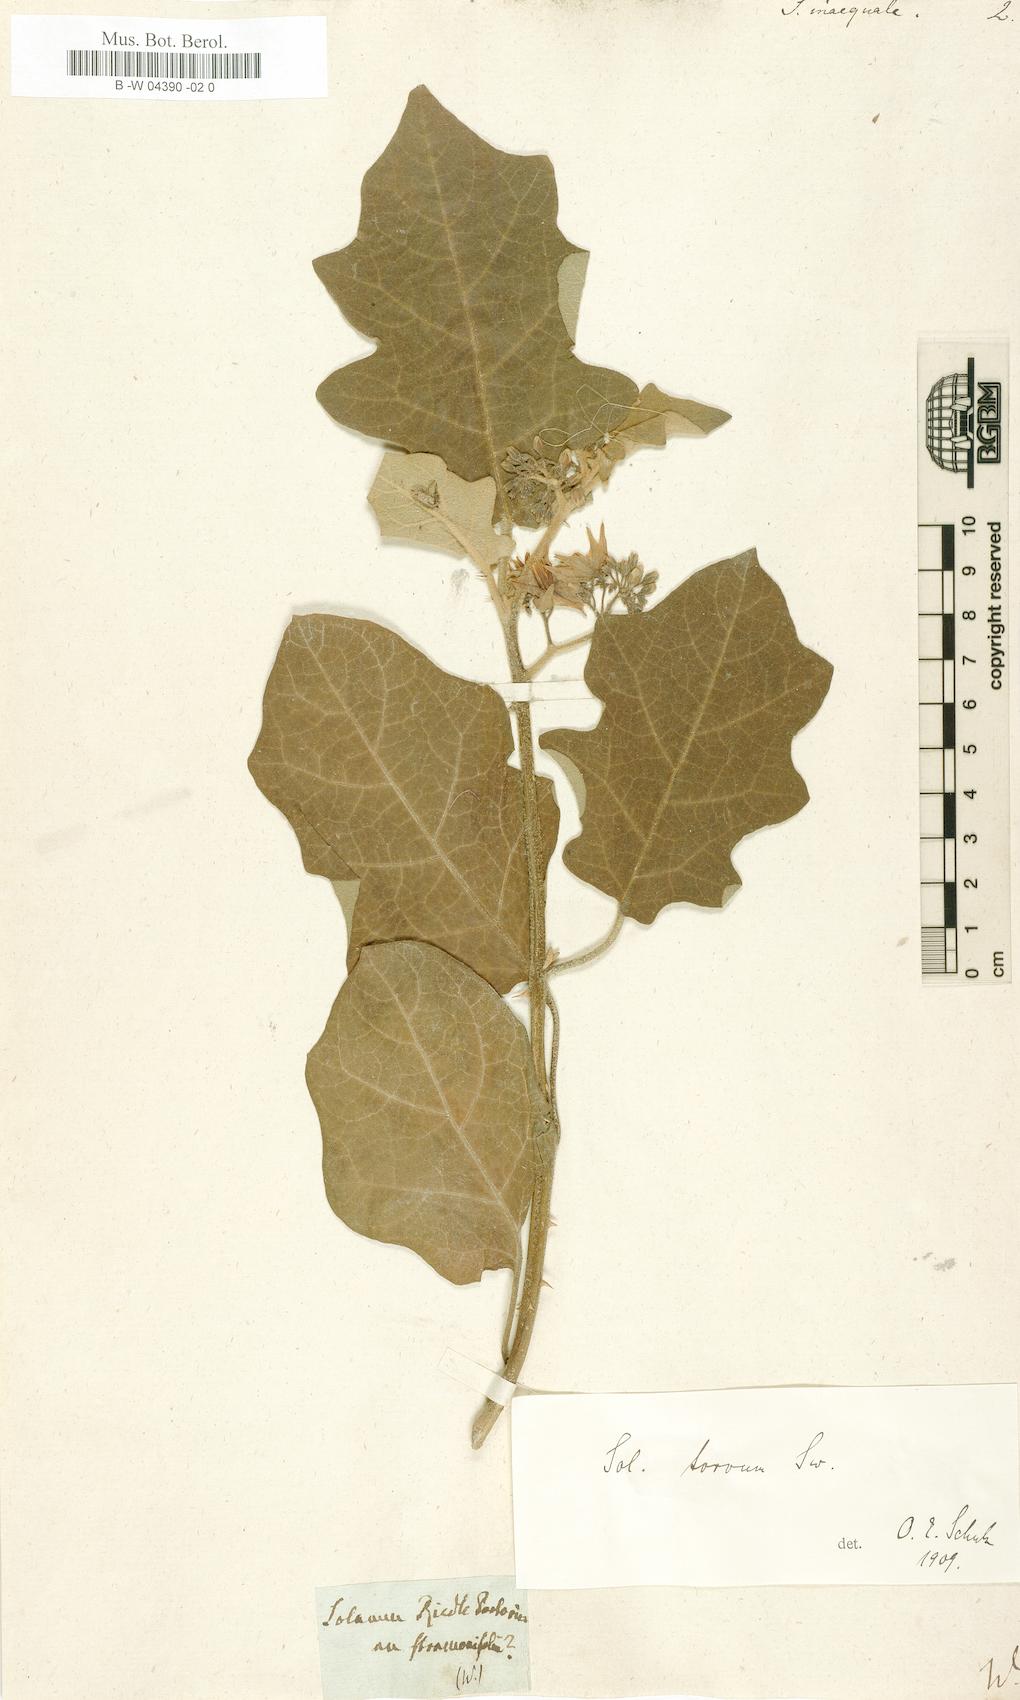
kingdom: Plantae
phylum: Tracheophyta
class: Magnoliopsida
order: Solanales
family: Solanaceae
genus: Solanum
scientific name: Solanum
